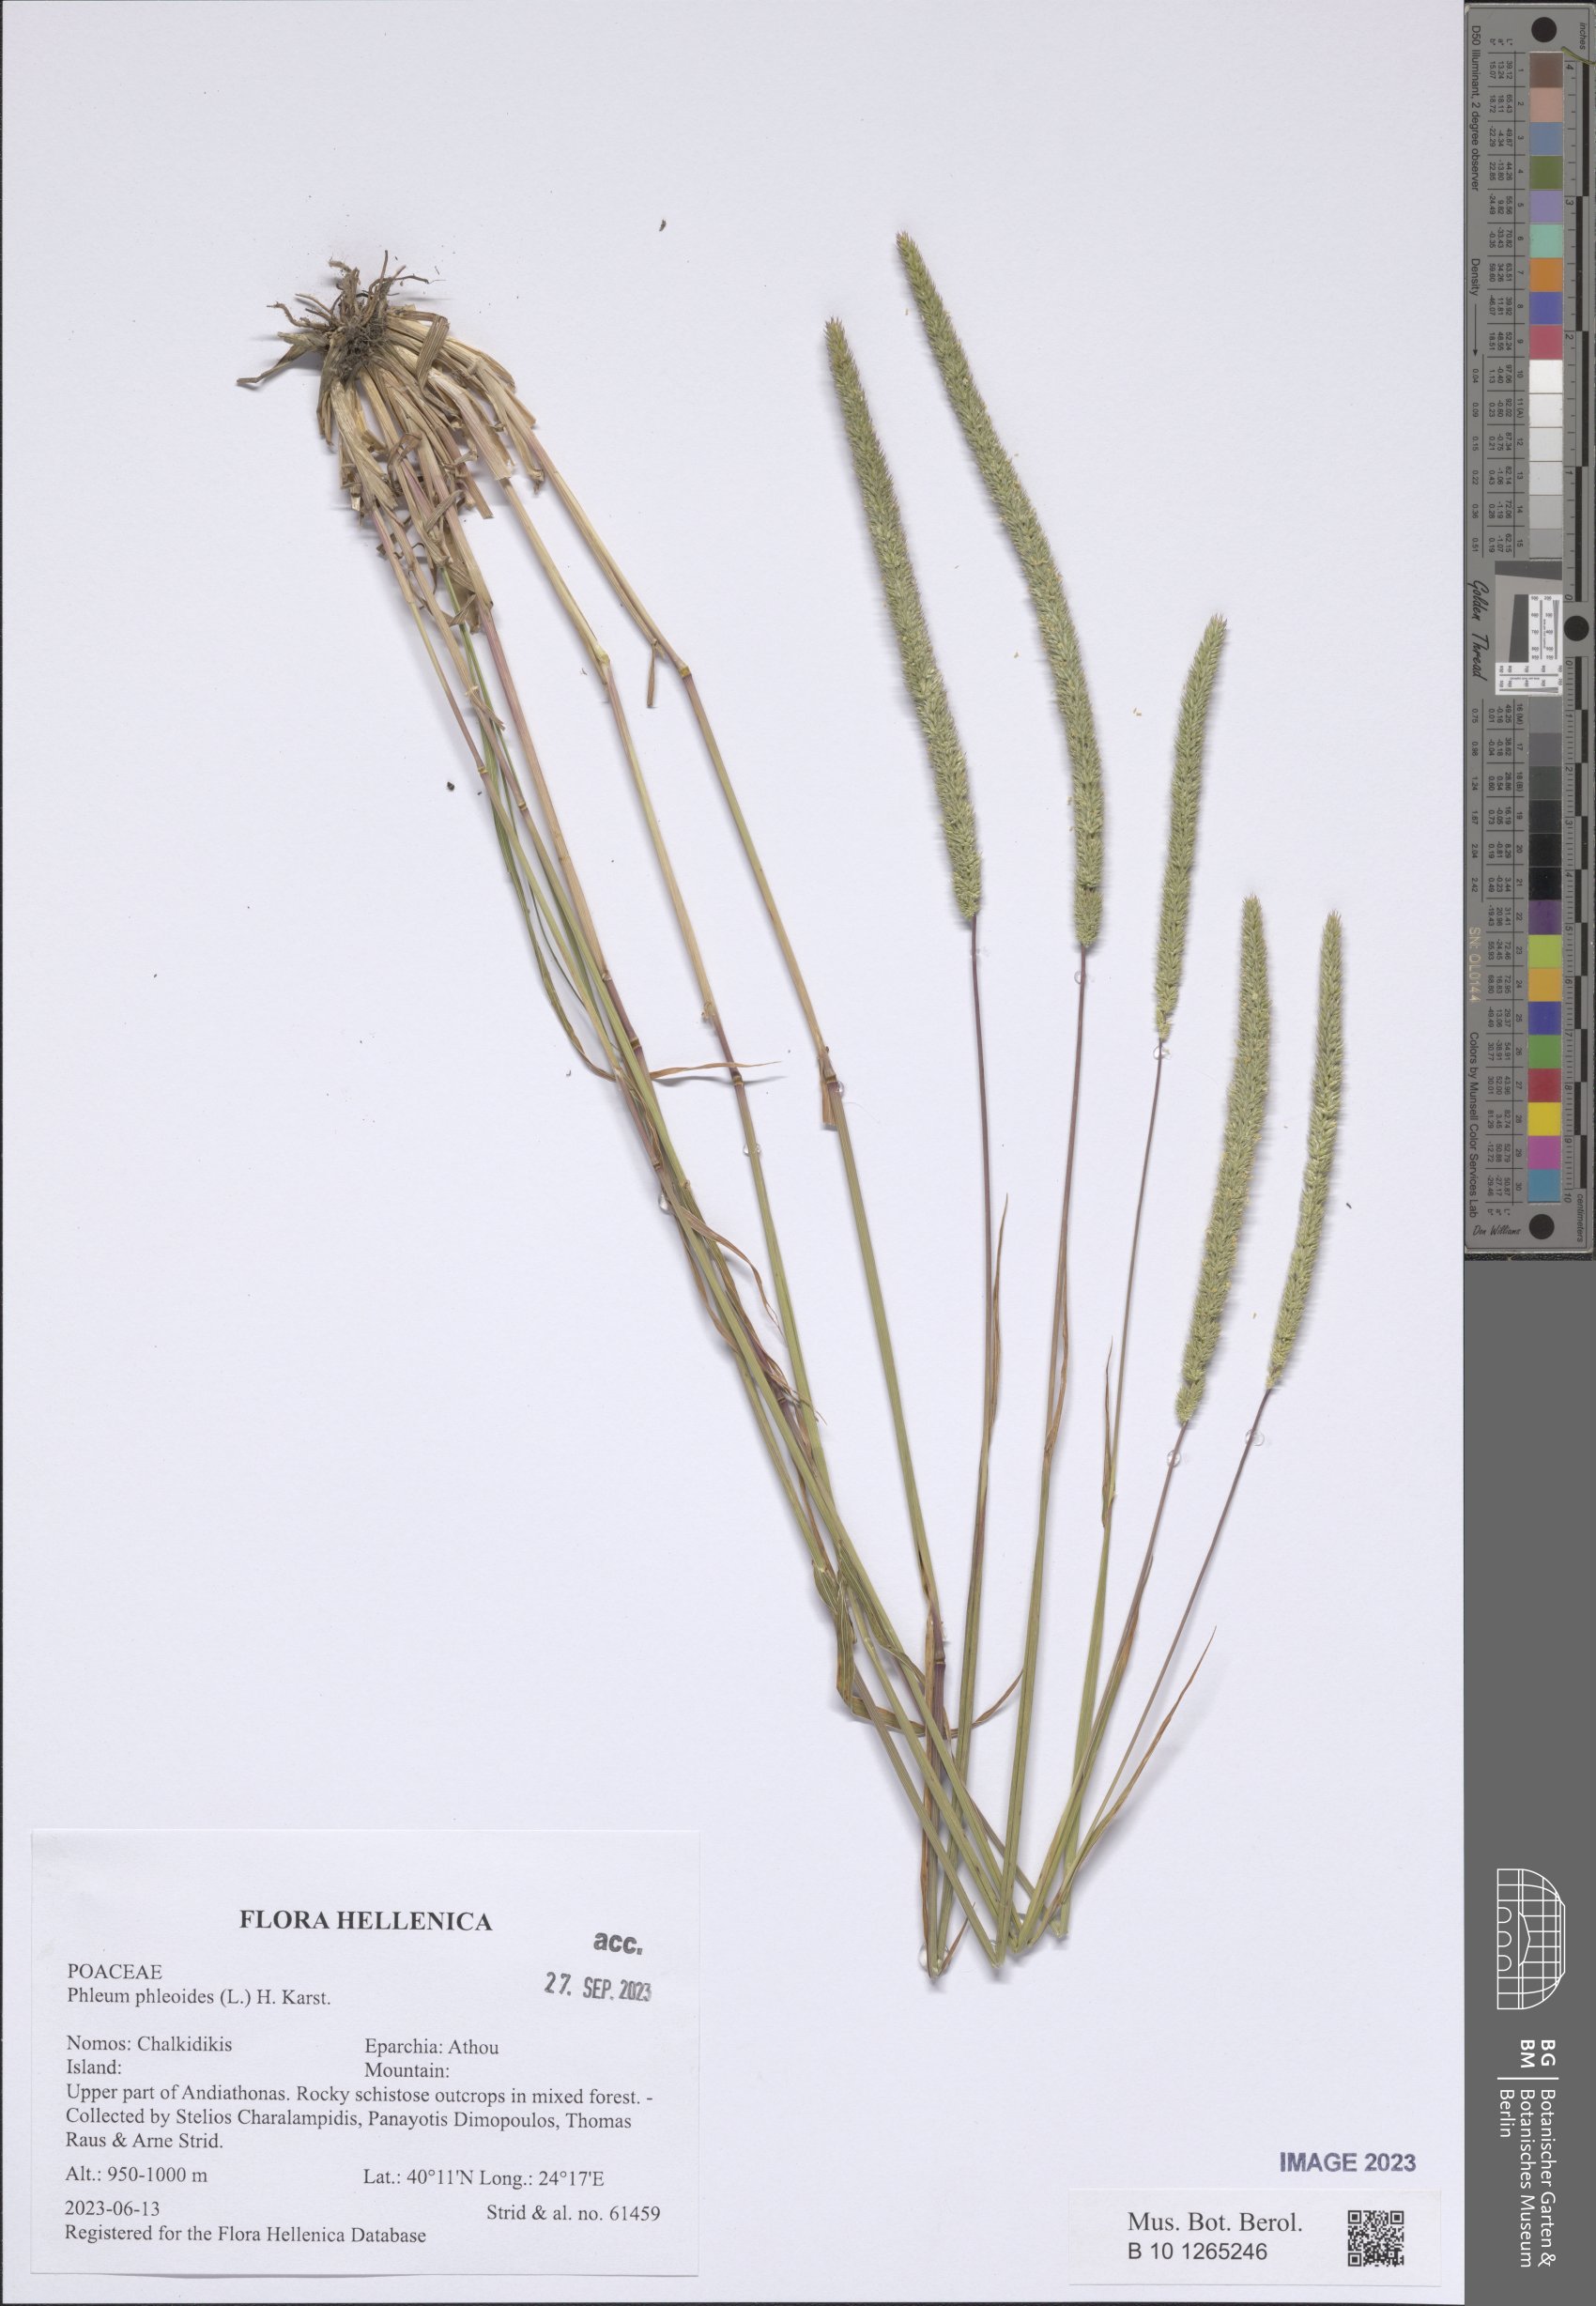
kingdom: Plantae
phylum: Tracheophyta
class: Liliopsida
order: Poales
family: Poaceae
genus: Phleum
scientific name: Phleum phleoides
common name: Purple-stem cat's-tail
